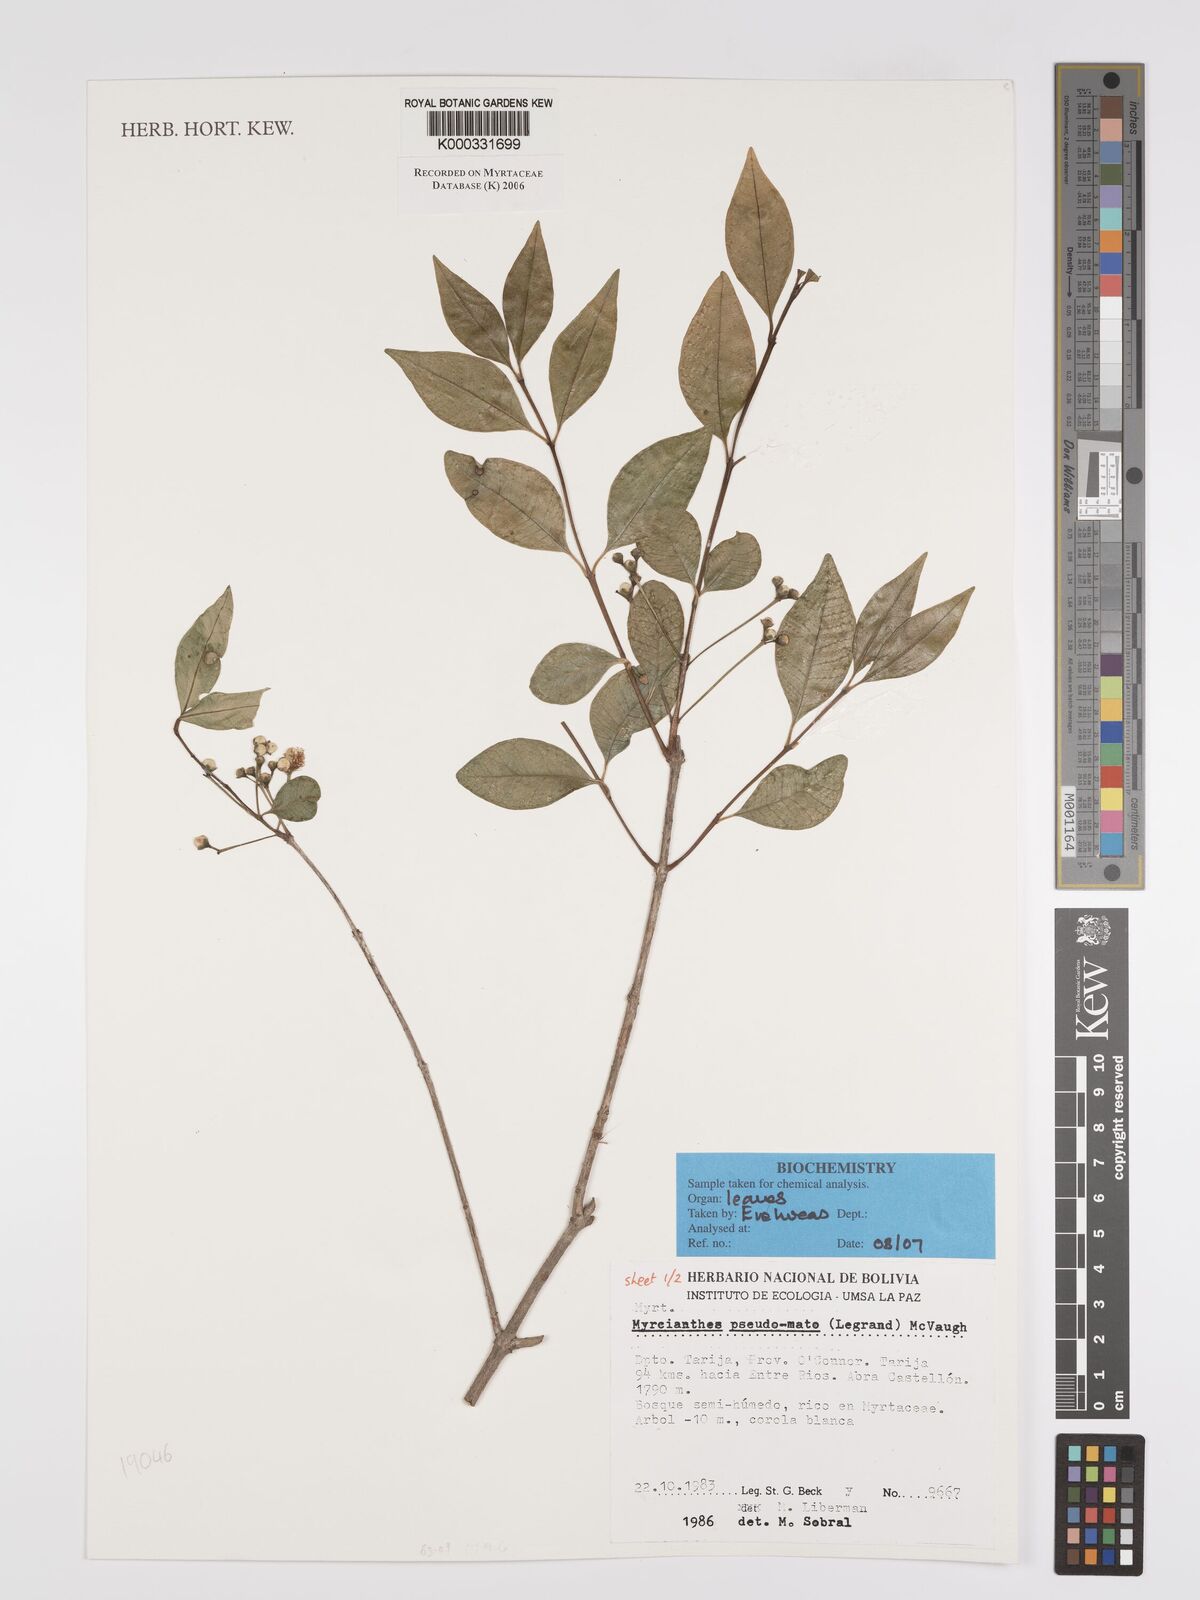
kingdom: Plantae
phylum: Tracheophyta
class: Magnoliopsida
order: Myrtales
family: Myrtaceae
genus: Myrcianthes
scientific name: Myrcianthes
